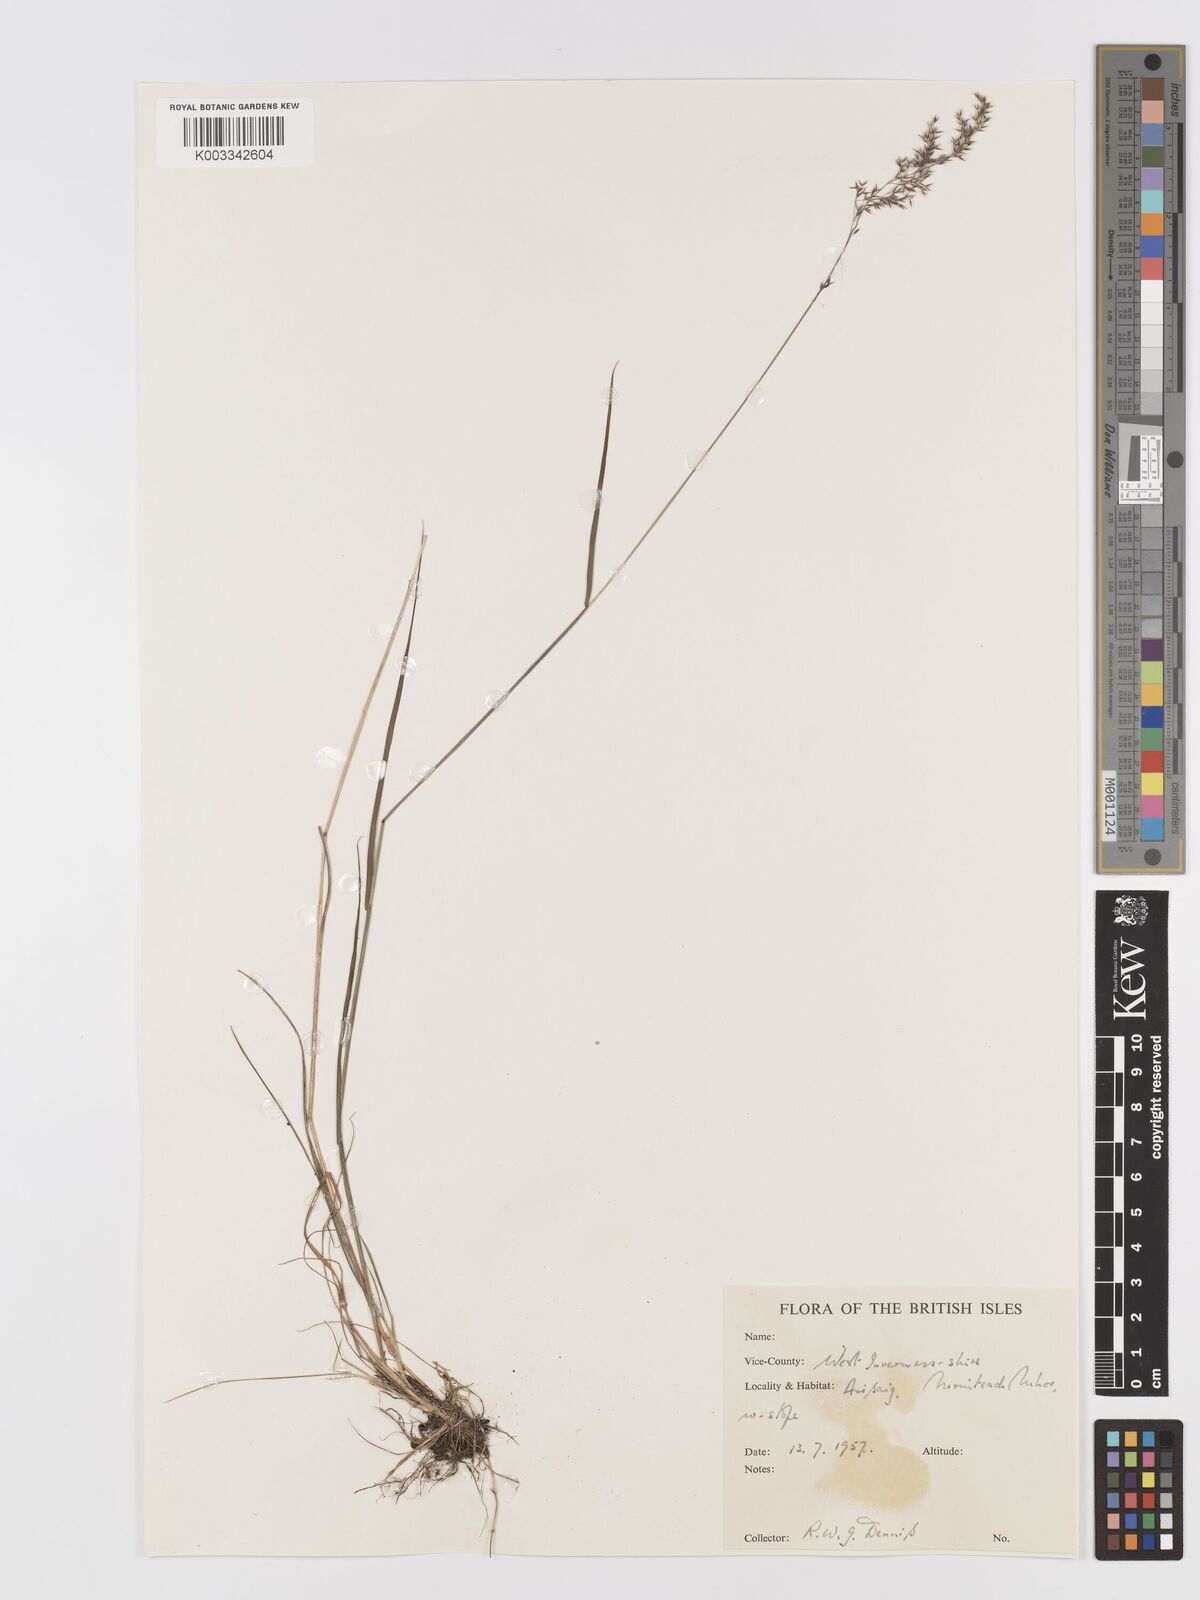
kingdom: Plantae
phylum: Tracheophyta
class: Liliopsida
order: Poales
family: Poaceae
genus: Agrostis
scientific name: Agrostis
